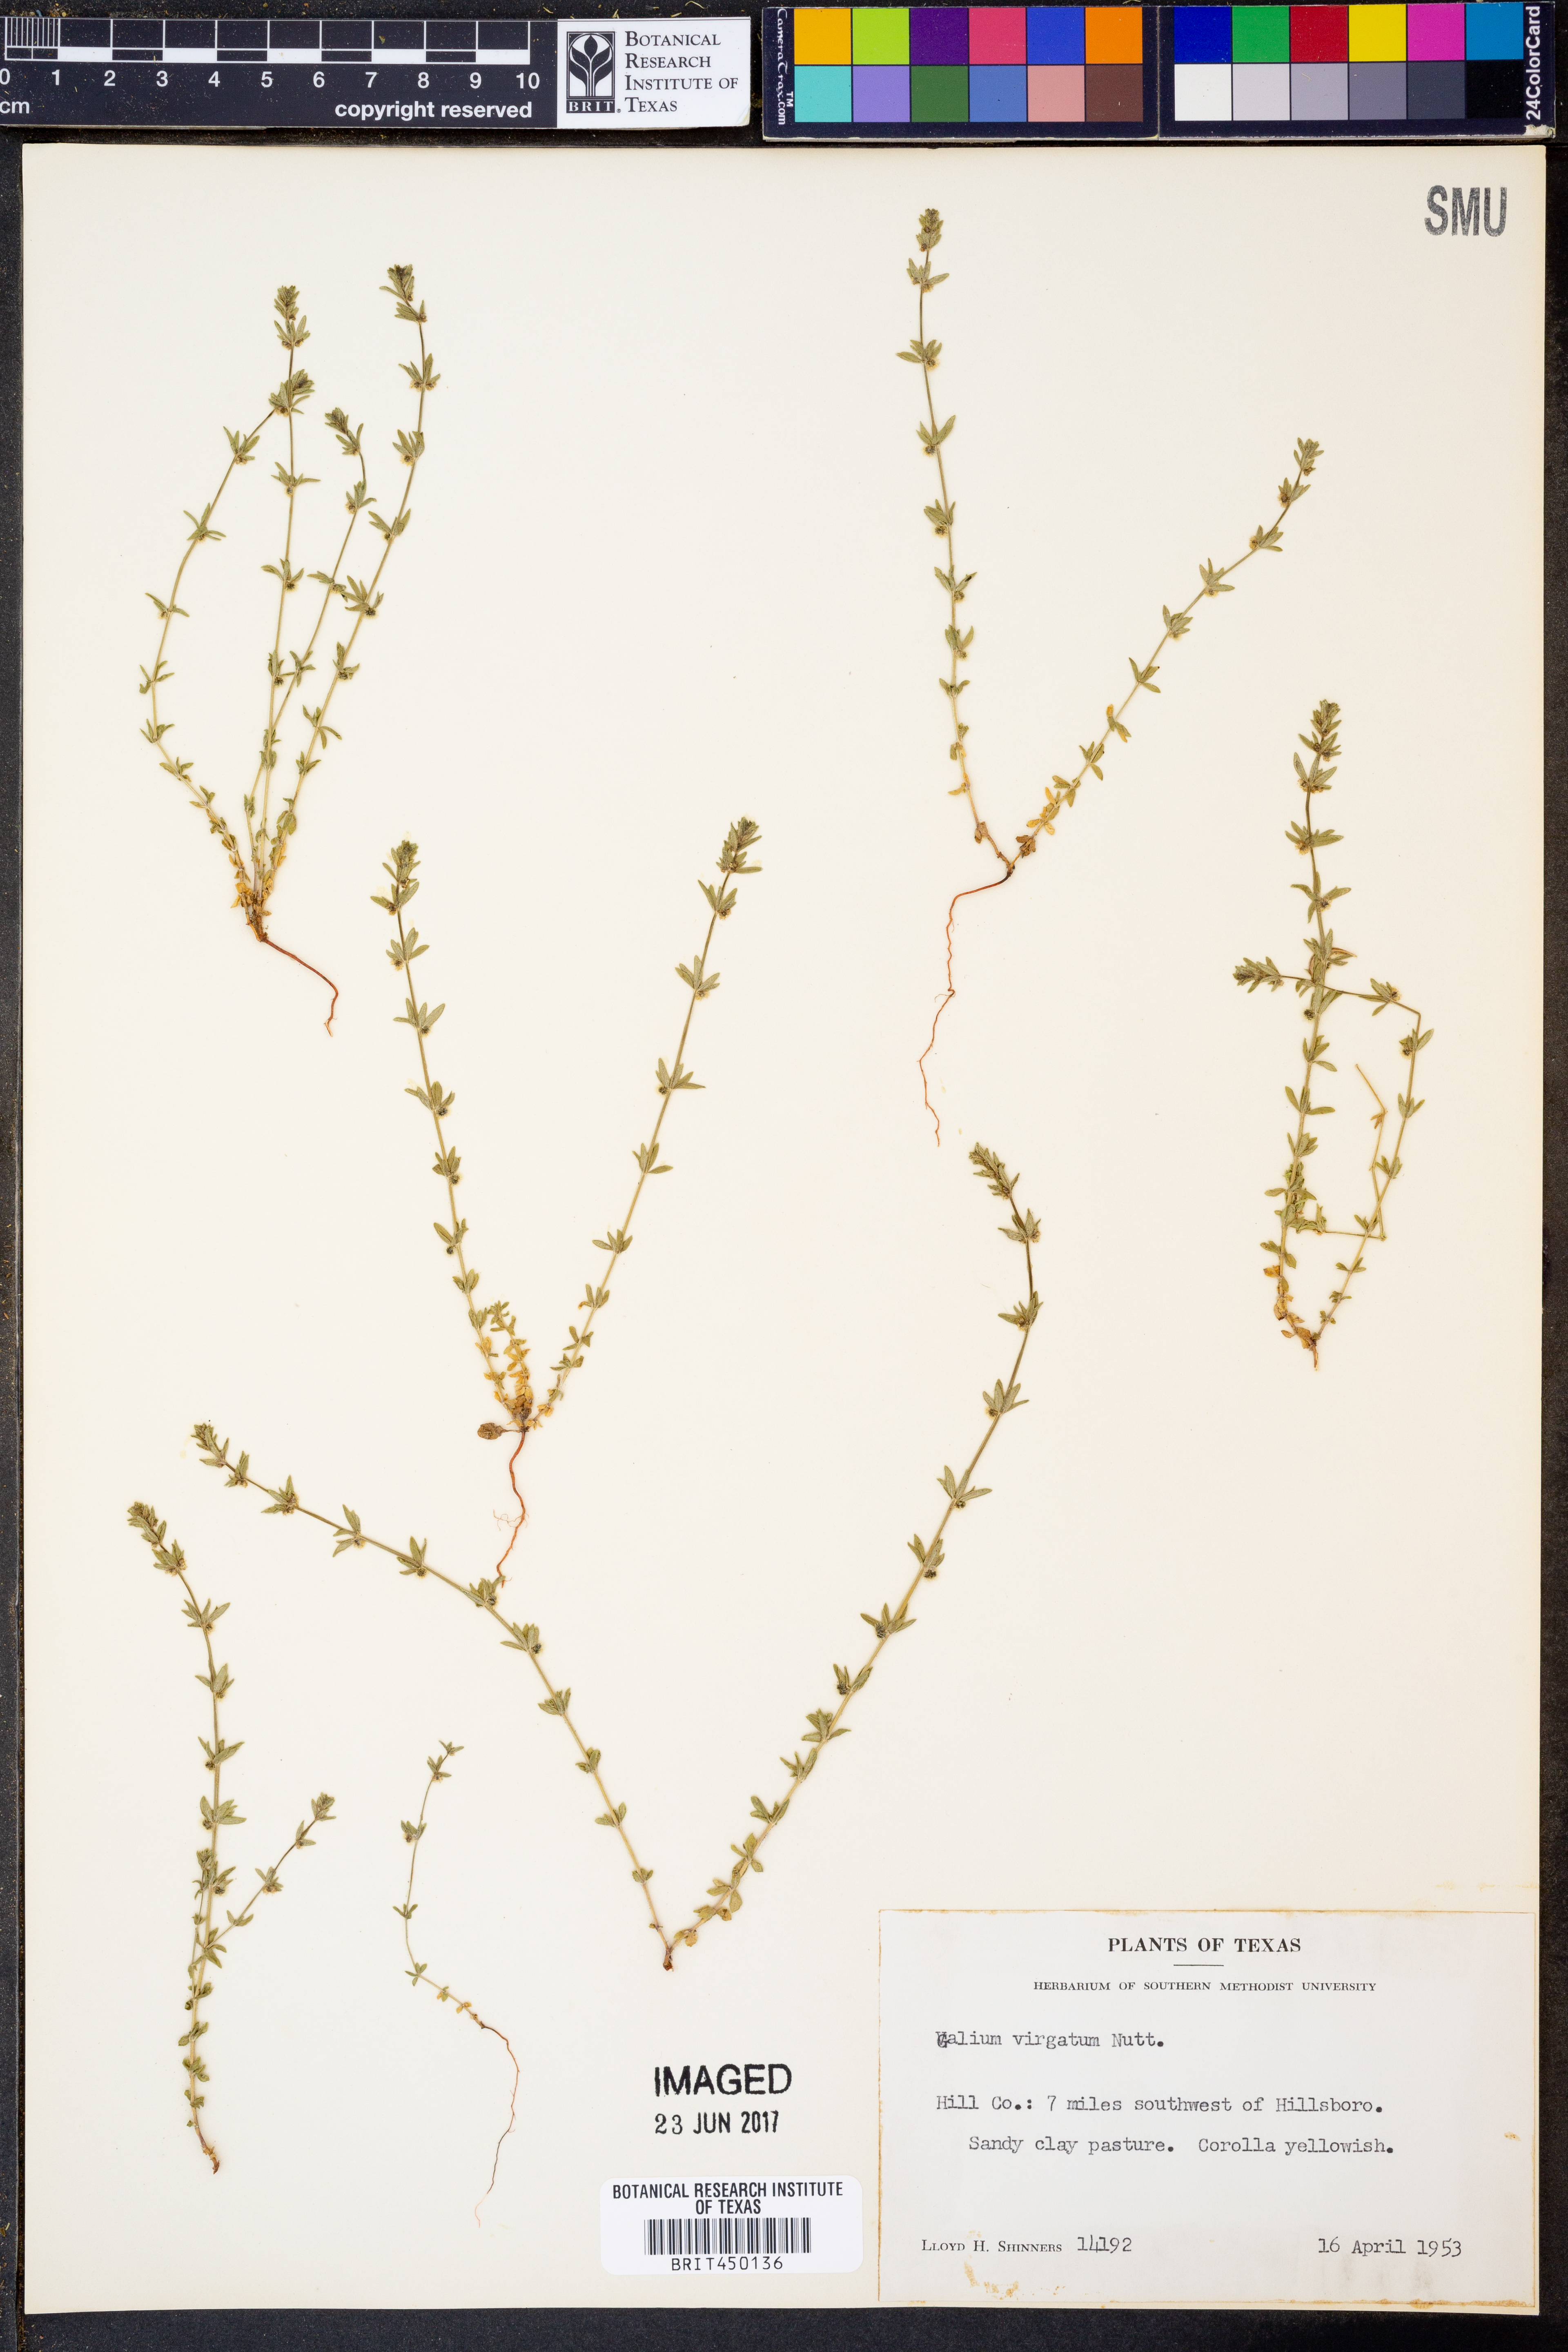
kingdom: Plantae
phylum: Tracheophyta
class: Magnoliopsida
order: Gentianales
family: Rubiaceae
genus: Galium
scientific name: Galium virgatum
